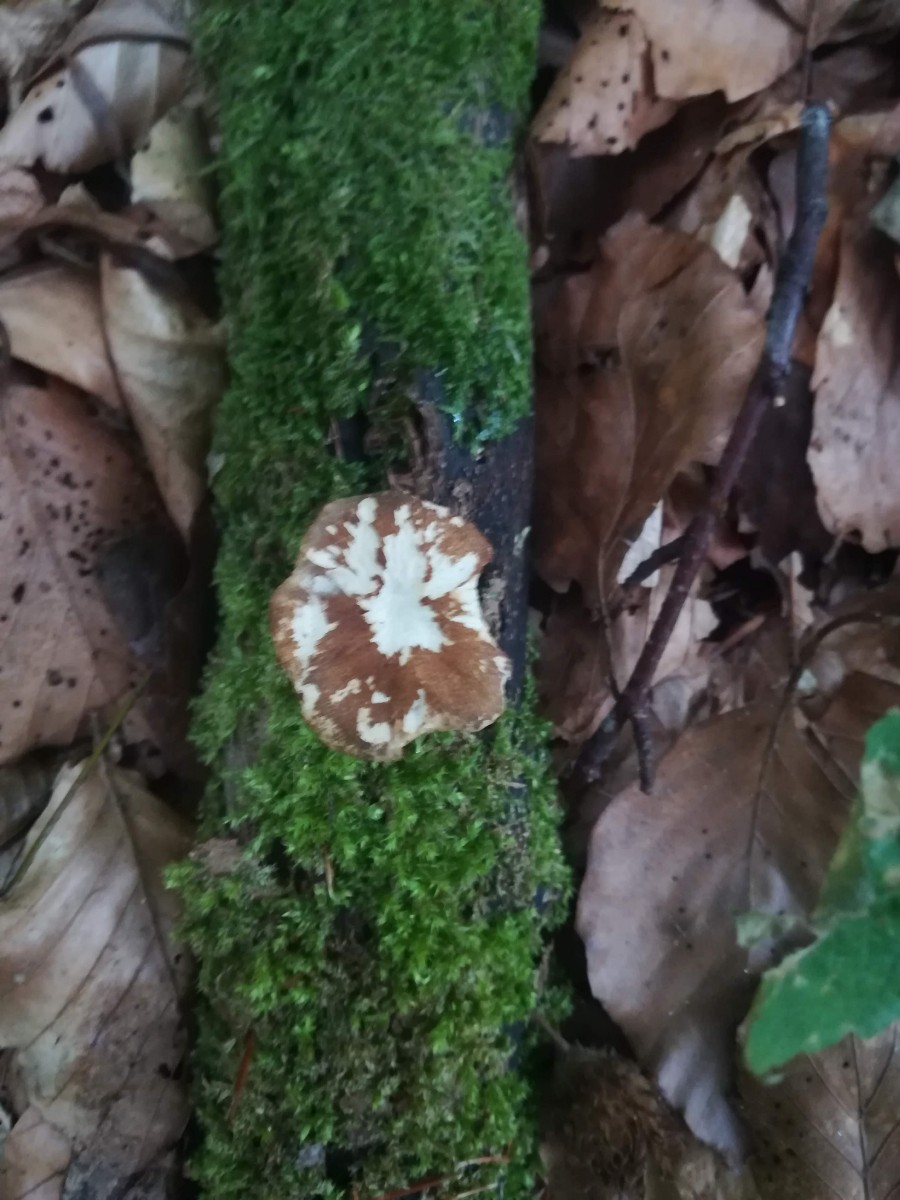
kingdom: Fungi
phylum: Basidiomycota
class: Agaricomycetes
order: Polyporales
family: Polyporaceae
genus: Lentinus
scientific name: Lentinus brumalis
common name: vinter-stilkporesvamp
